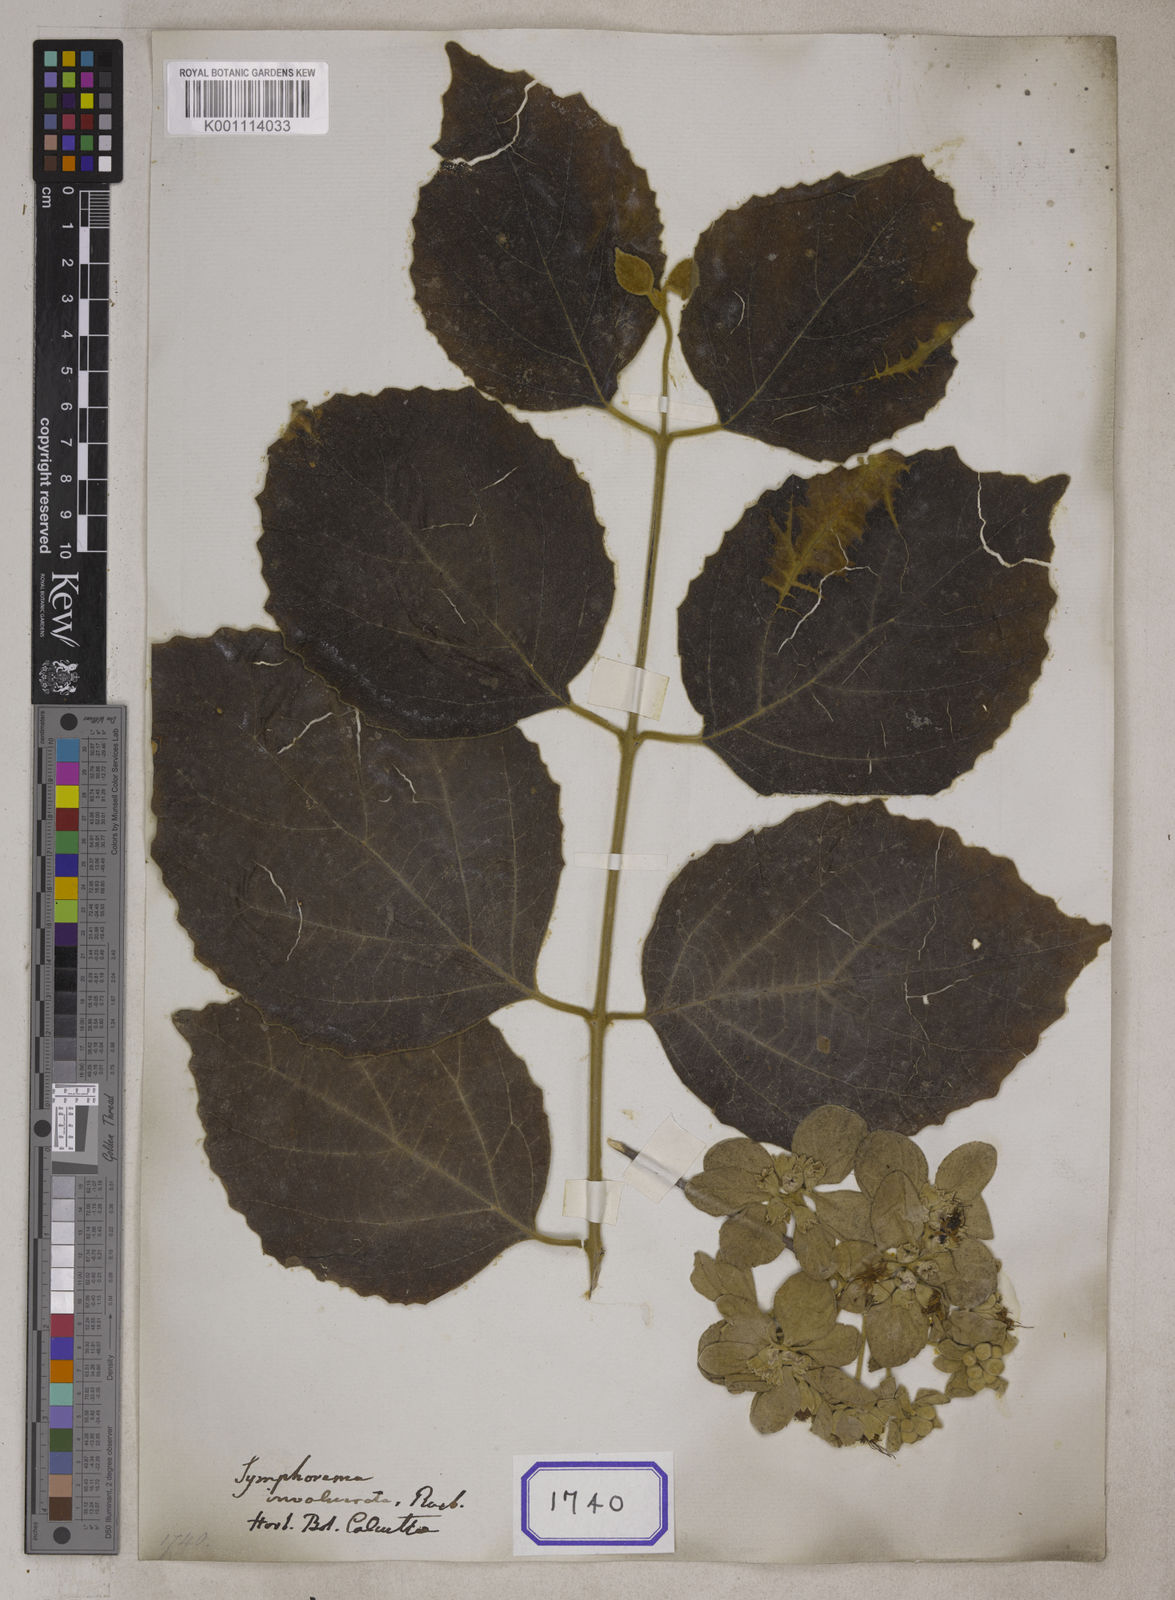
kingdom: Plantae
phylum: Tracheophyta
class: Magnoliopsida
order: Lamiales
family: Lamiaceae
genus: Symphorema
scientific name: Symphorema involucratum
